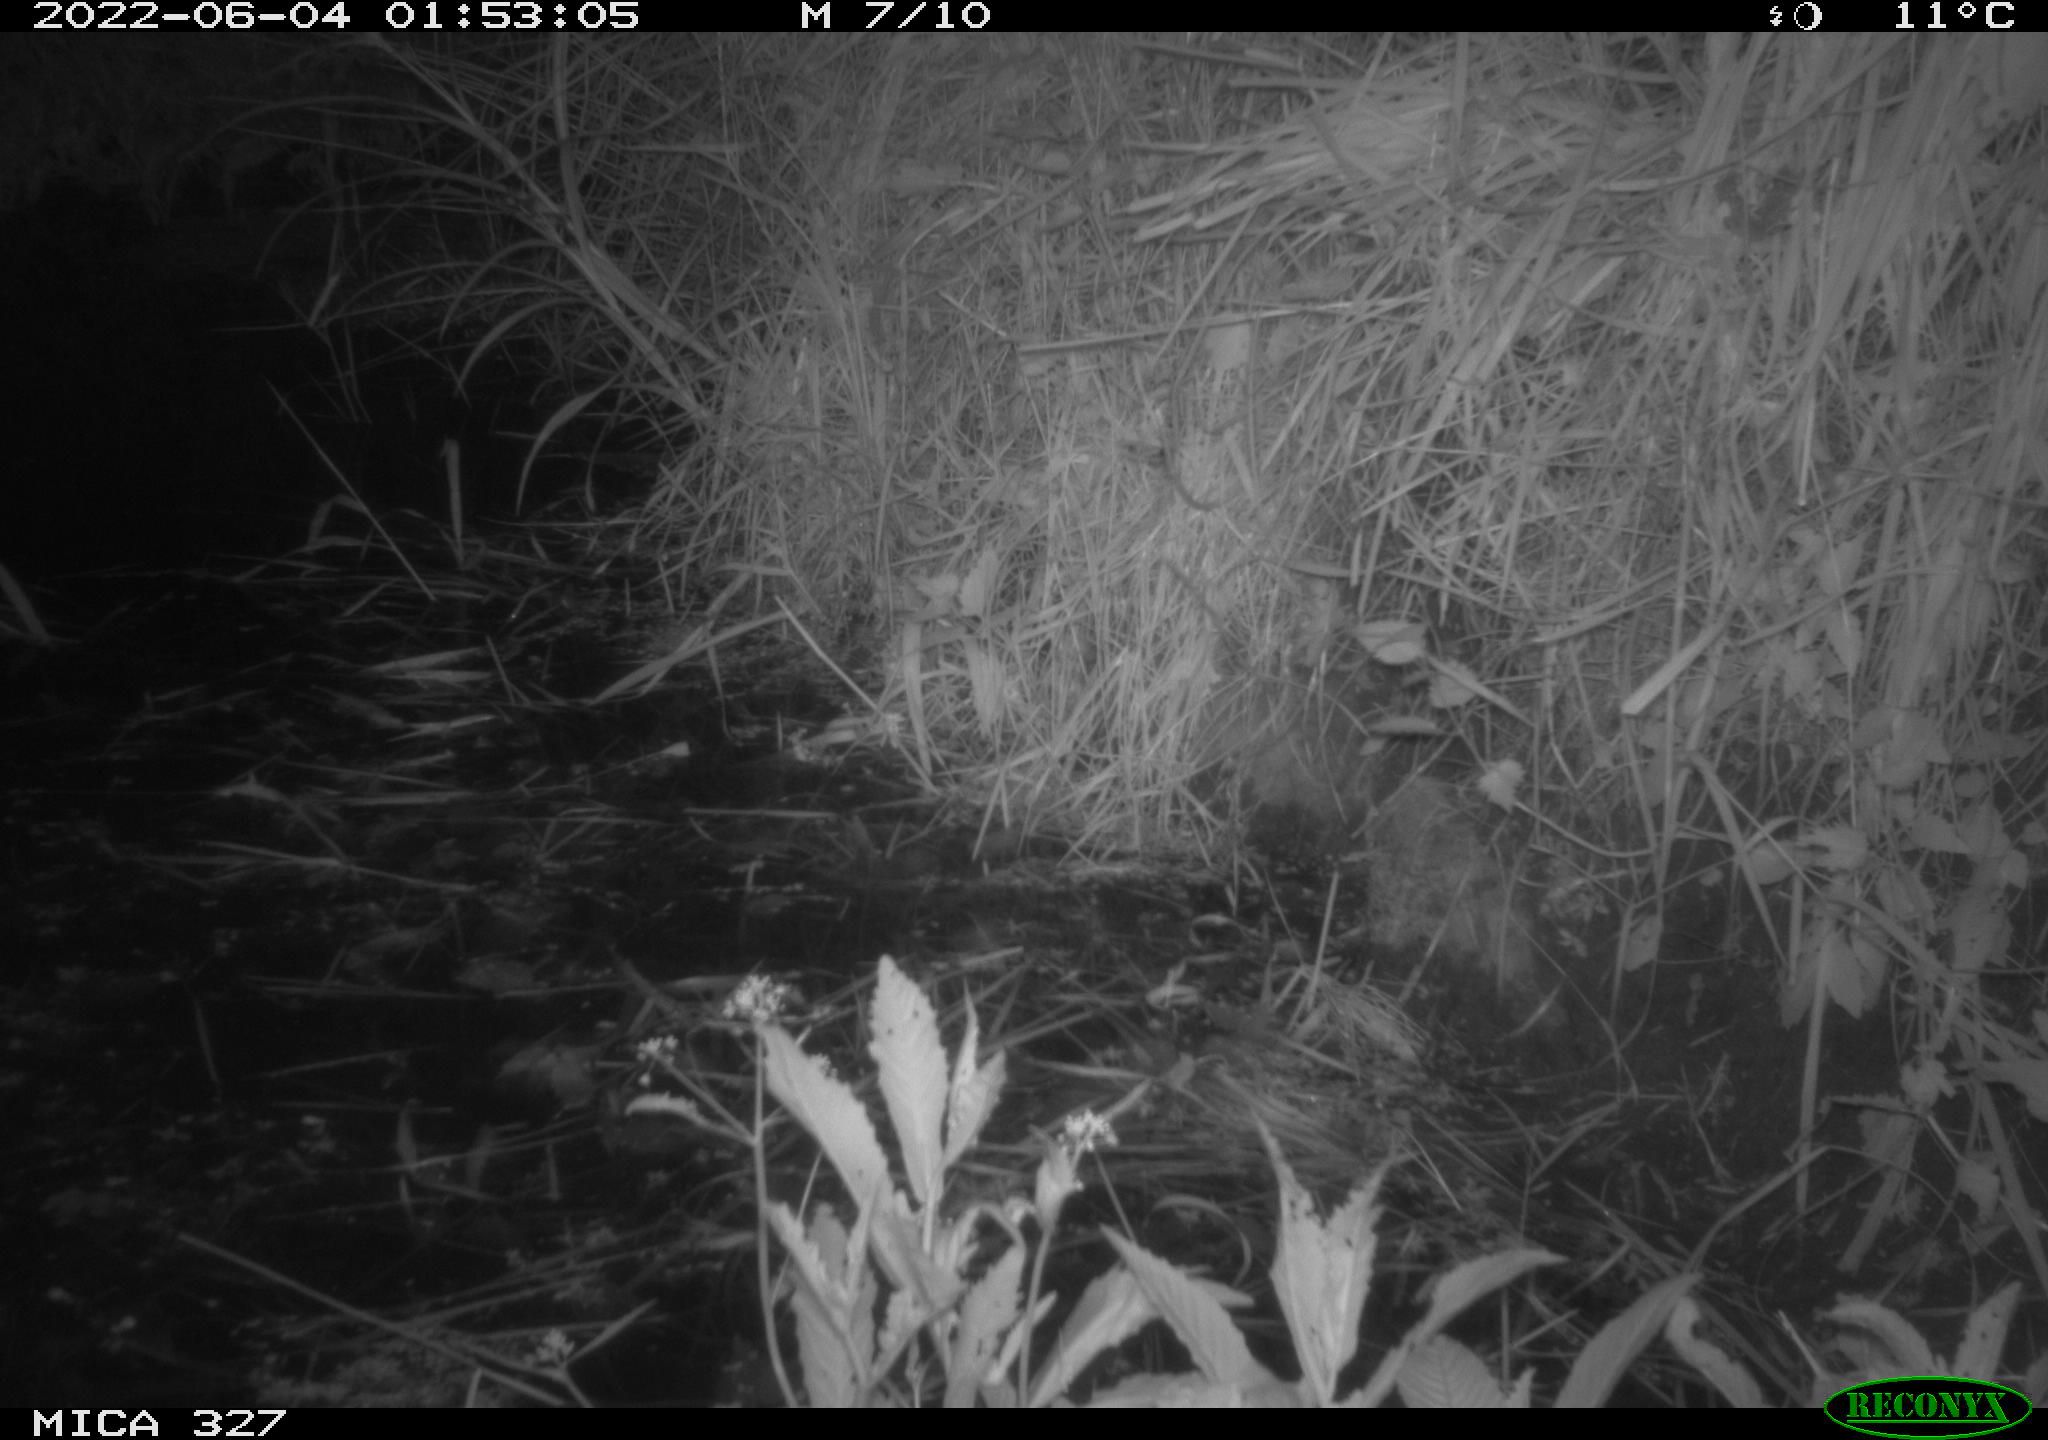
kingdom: Animalia
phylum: Chordata
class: Mammalia
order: Rodentia
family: Muridae
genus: Rattus
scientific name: Rattus norvegicus
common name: Brown rat
